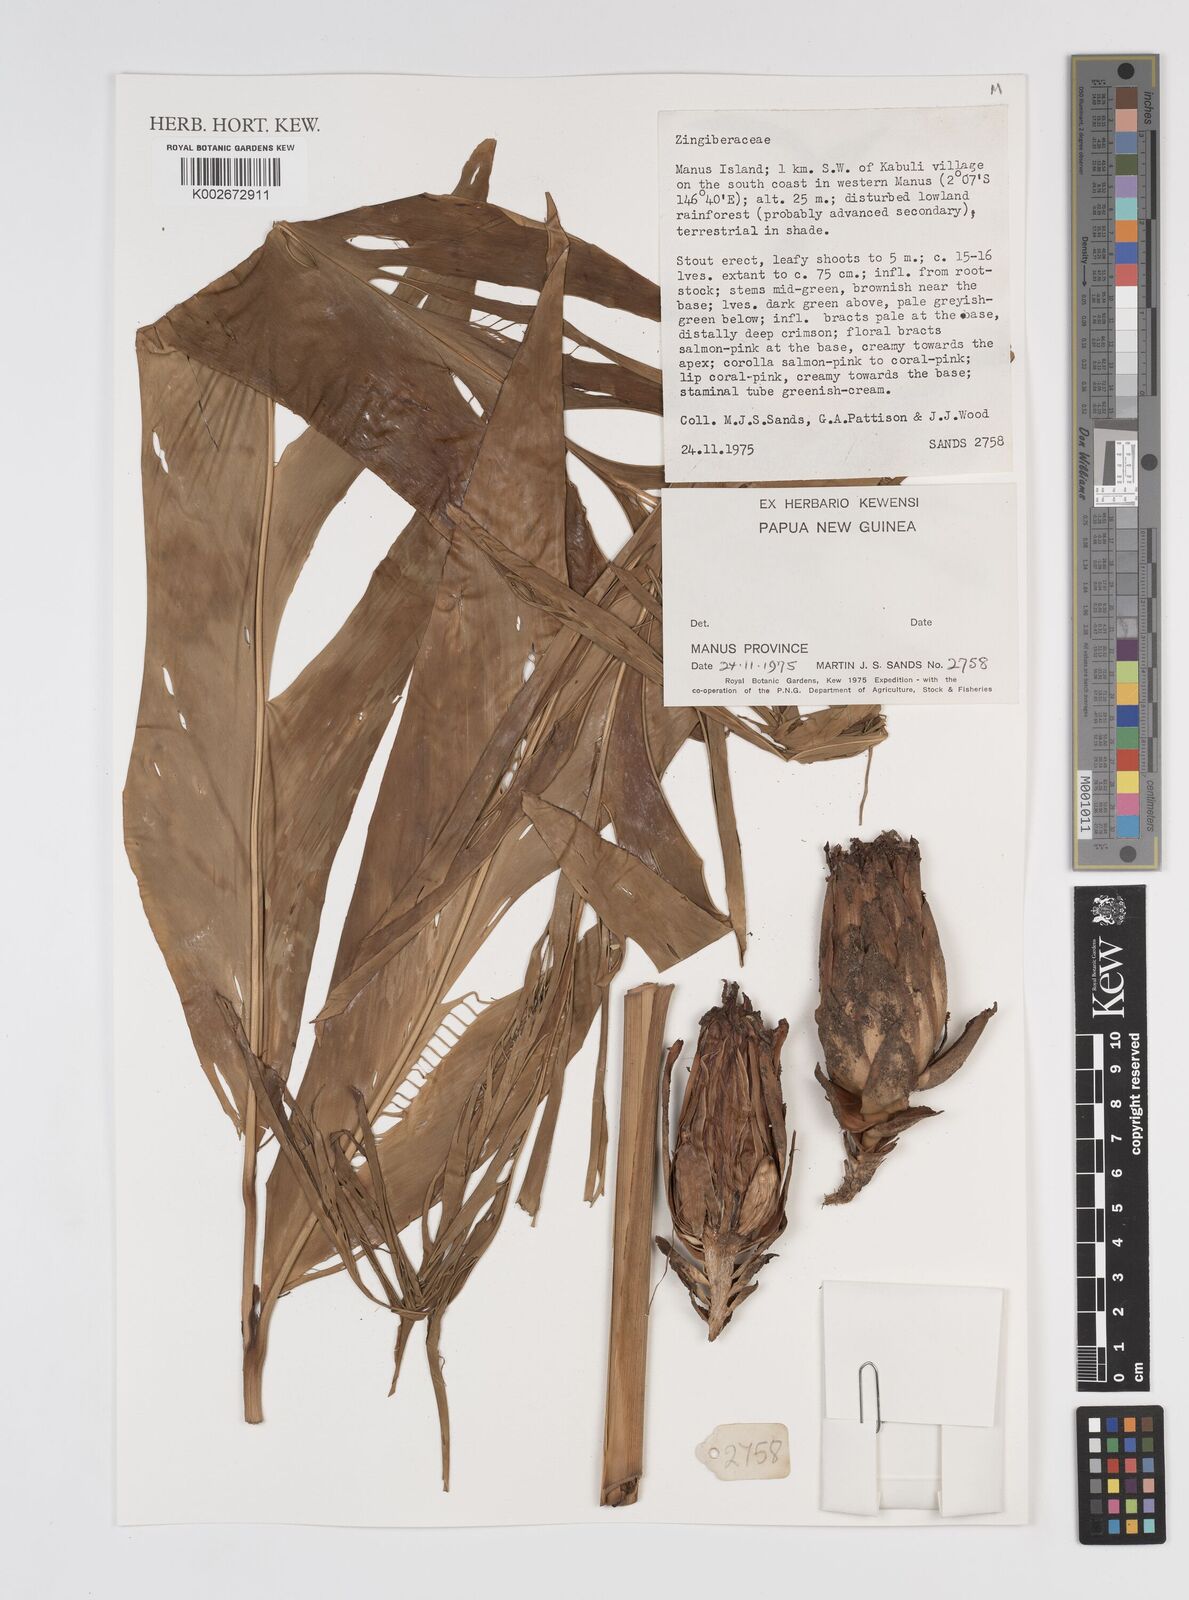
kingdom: Plantae
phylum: Tracheophyta
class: Liliopsida
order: Zingiberales
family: Zingiberaceae
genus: Etlingera
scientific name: Etlingera
